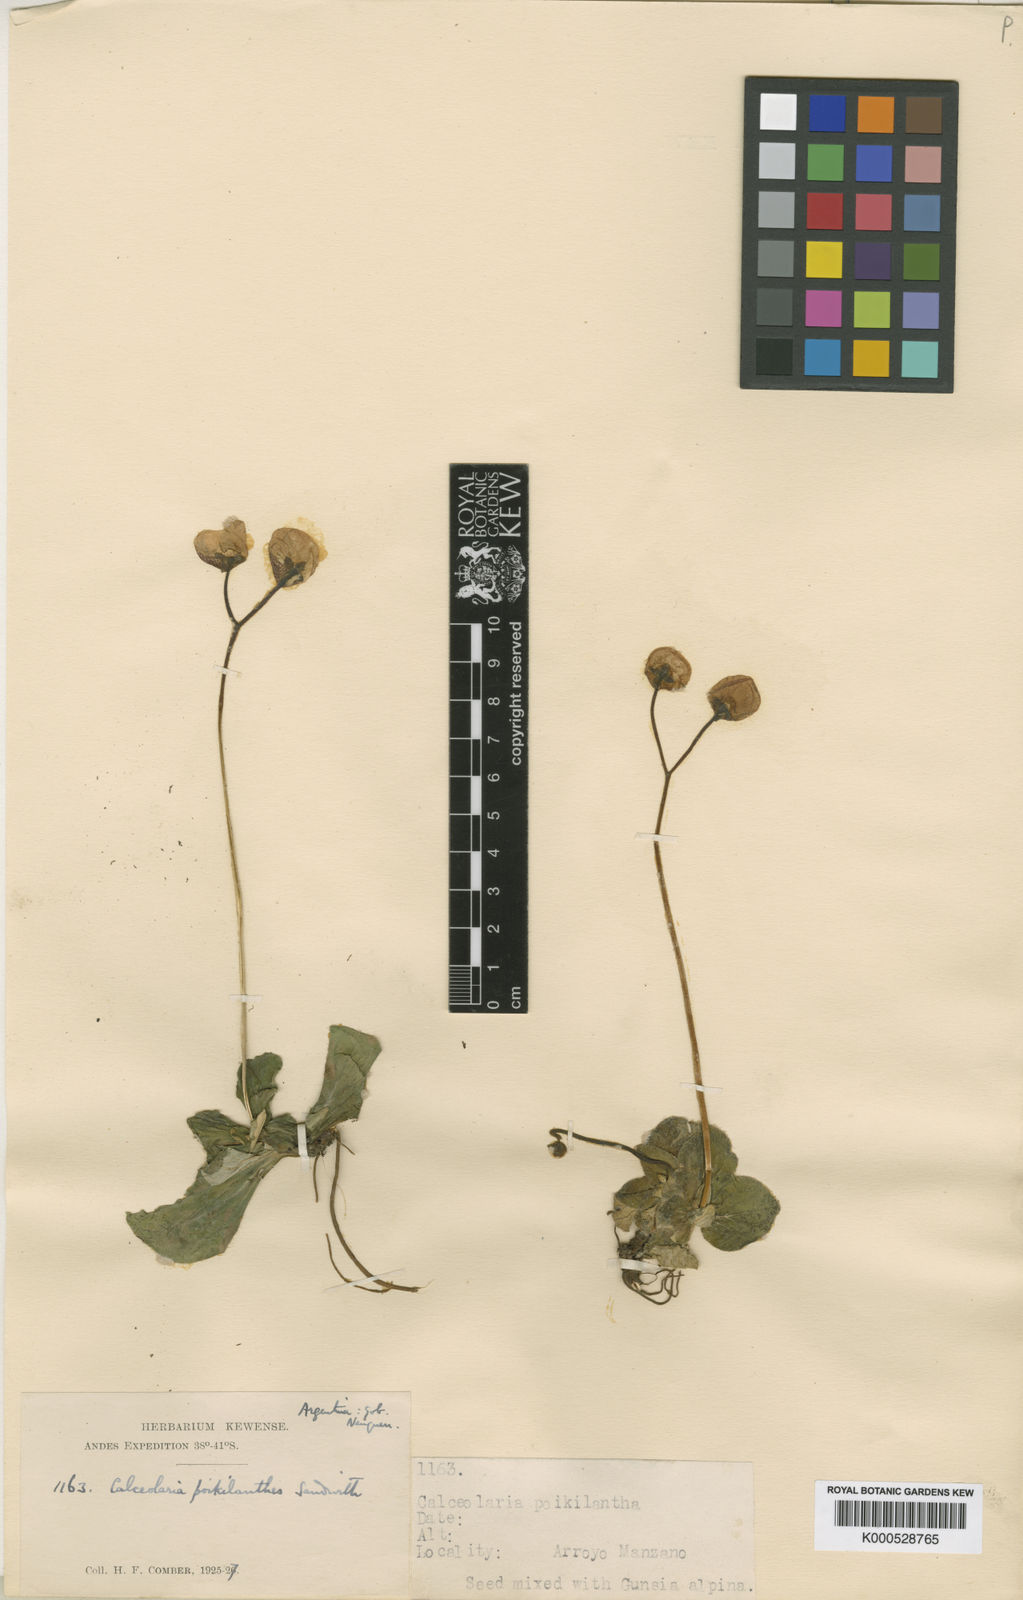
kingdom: Plantae
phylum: Tracheophyta
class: Magnoliopsida
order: Lamiales
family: Calceolariaceae
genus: Calceolaria
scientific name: Calceolaria poikilanthes
